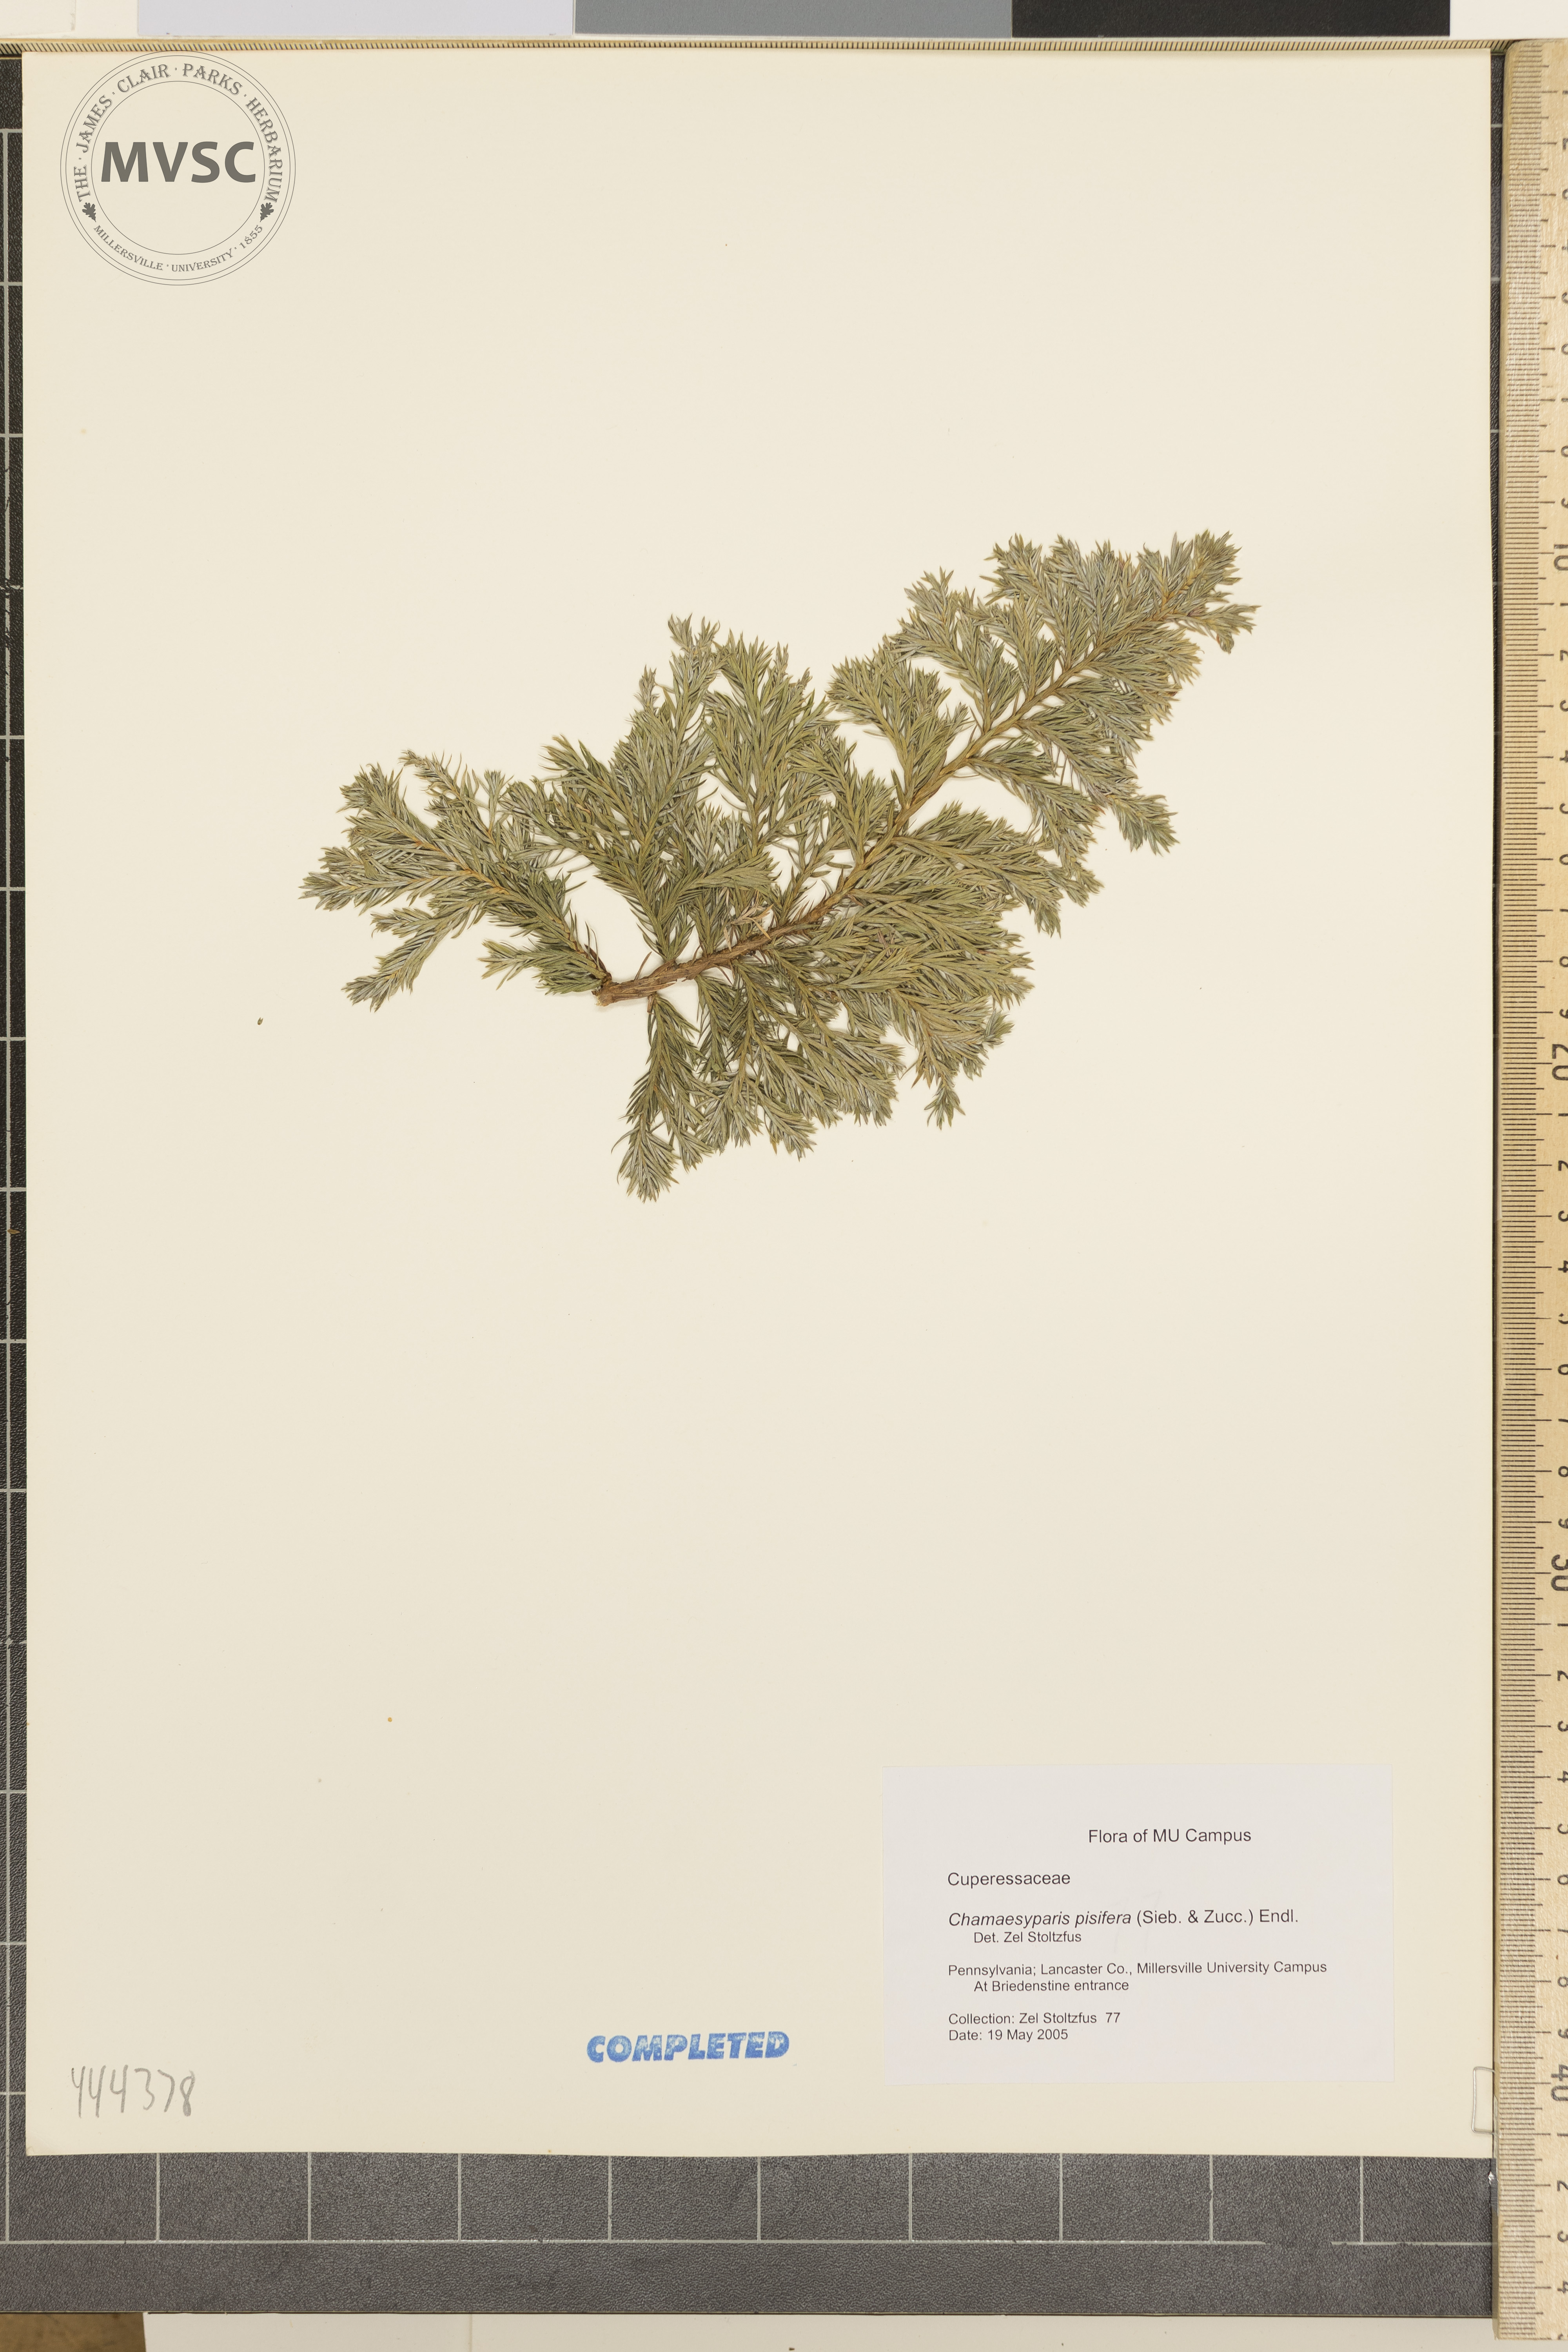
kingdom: Plantae
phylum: Tracheophyta
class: Pinopsida
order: Pinales
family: Cupressaceae
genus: Chamaecyparis
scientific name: Chamaecyparis pisifera
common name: Sawara cypress
